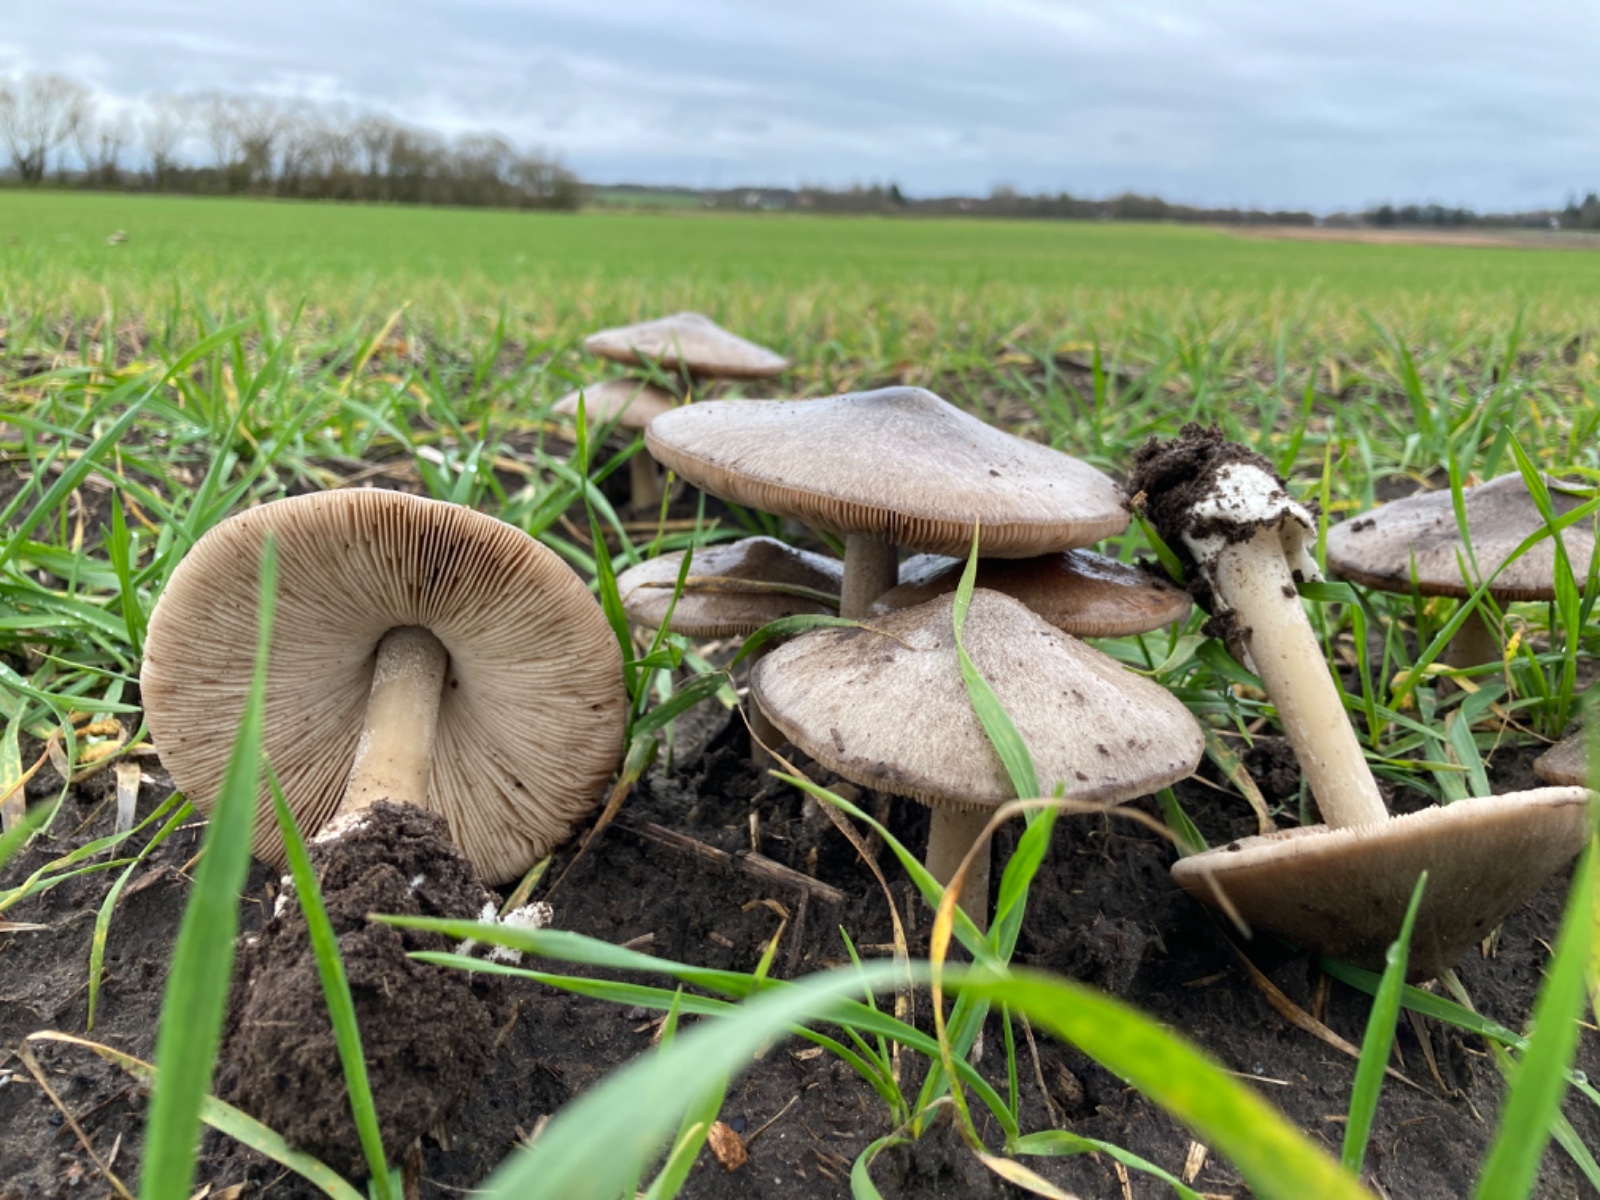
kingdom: Fungi
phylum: Basidiomycota
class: Agaricomycetes
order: Agaricales
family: Pluteaceae
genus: Volvopluteus
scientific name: Volvopluteus gloiocephalus
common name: høj posesvamp
